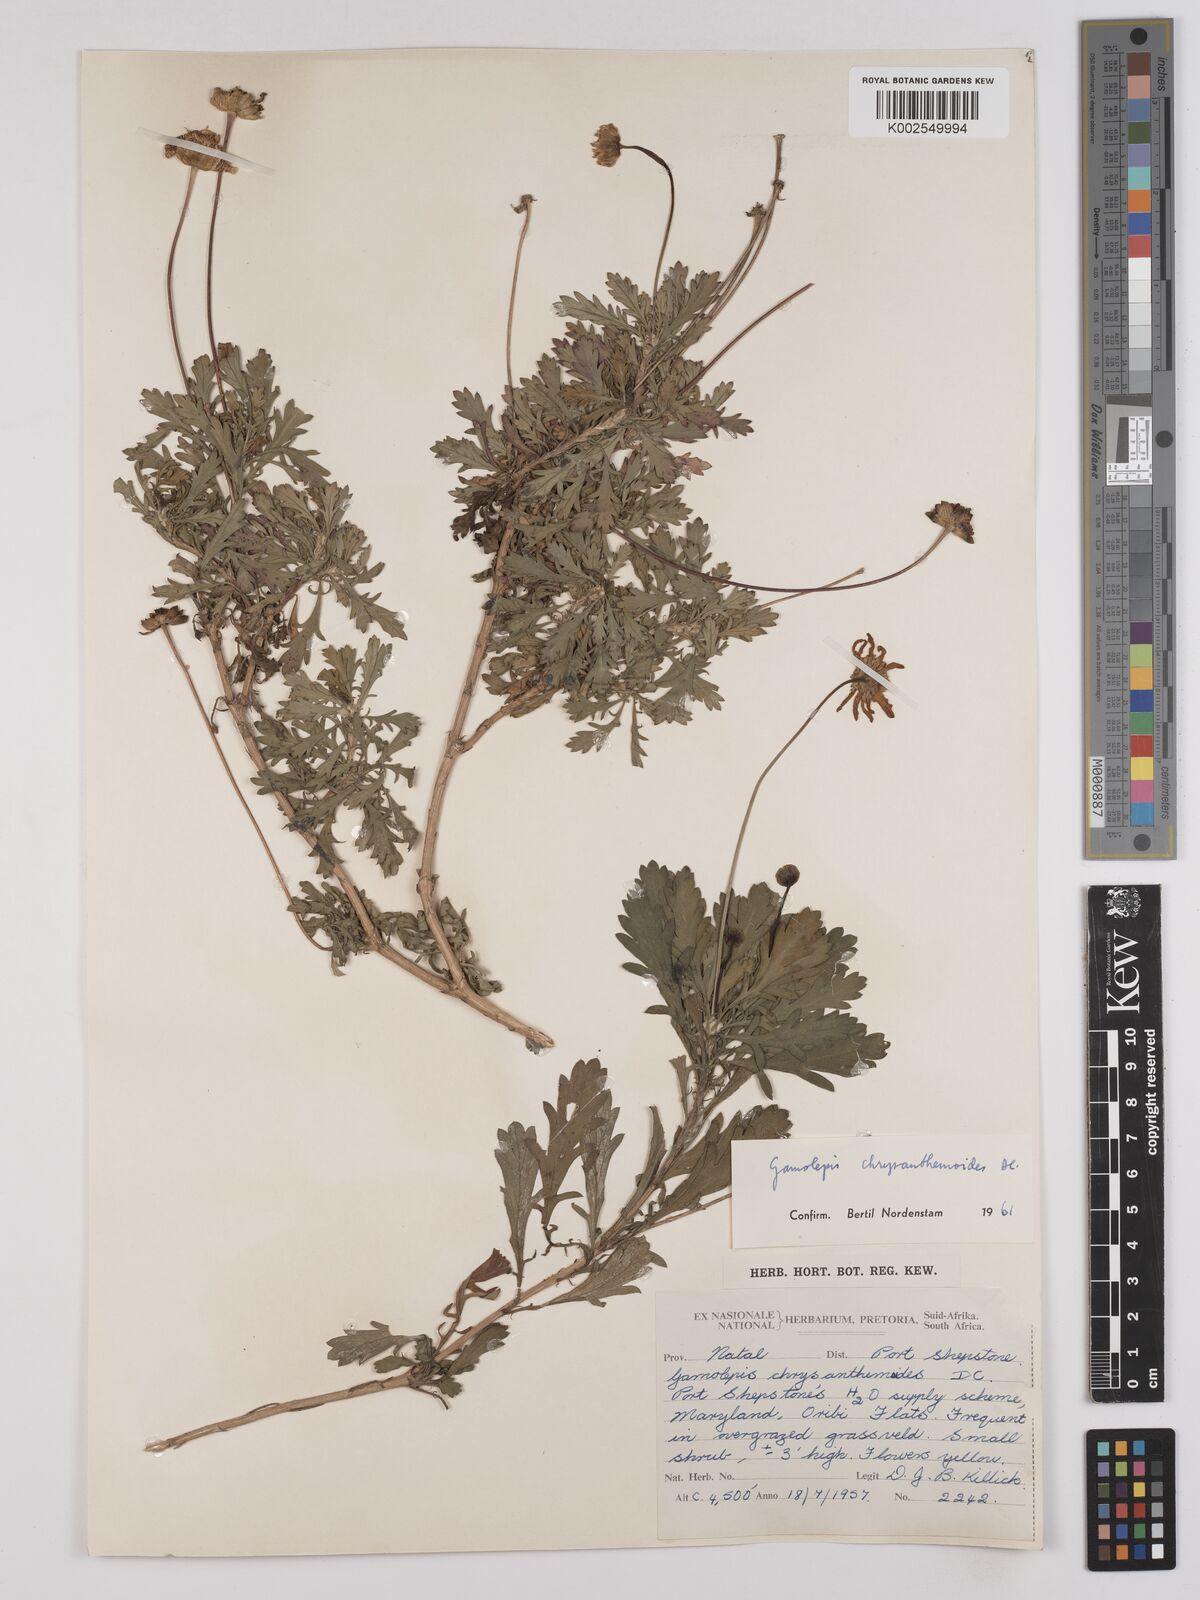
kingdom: Plantae
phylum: Tracheophyta
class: Magnoliopsida
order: Asterales
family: Asteraceae
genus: Euryops
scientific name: Euryops chrysanthemoides
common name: Bull's eye
